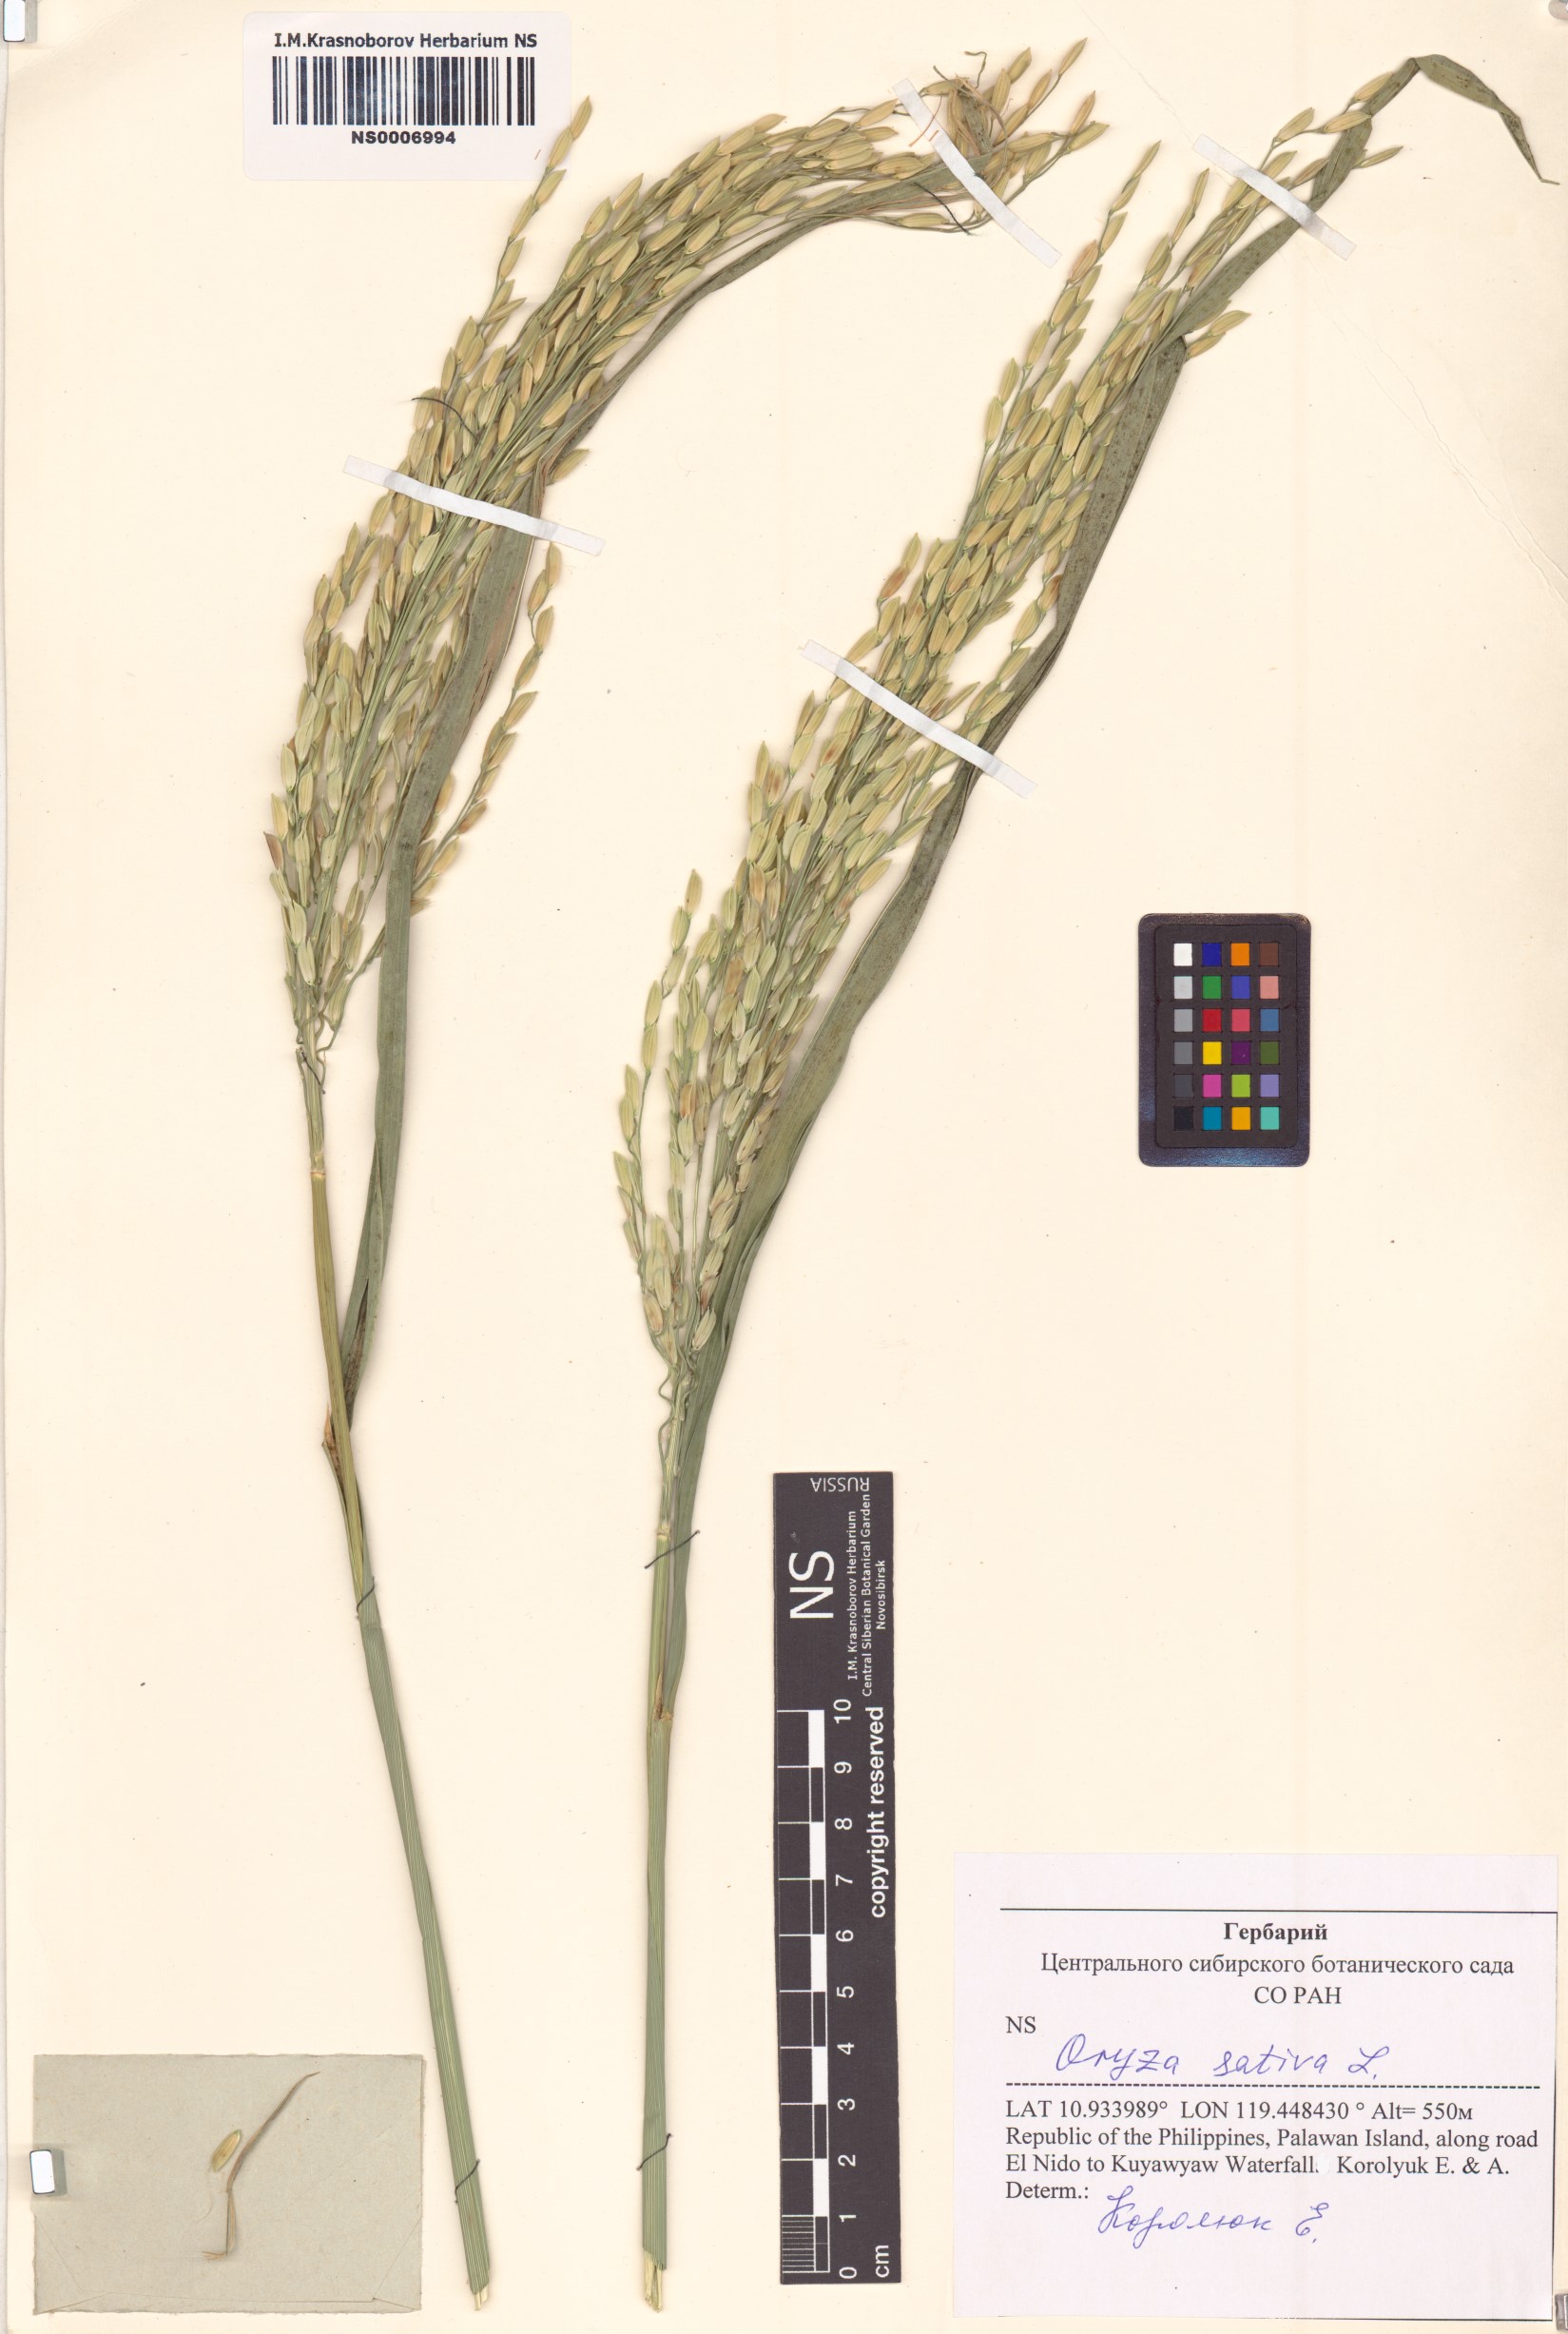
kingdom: Plantae
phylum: Tracheophyta
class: Liliopsida
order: Poales
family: Poaceae
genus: Oryza
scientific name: Oryza sativa
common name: Rice
